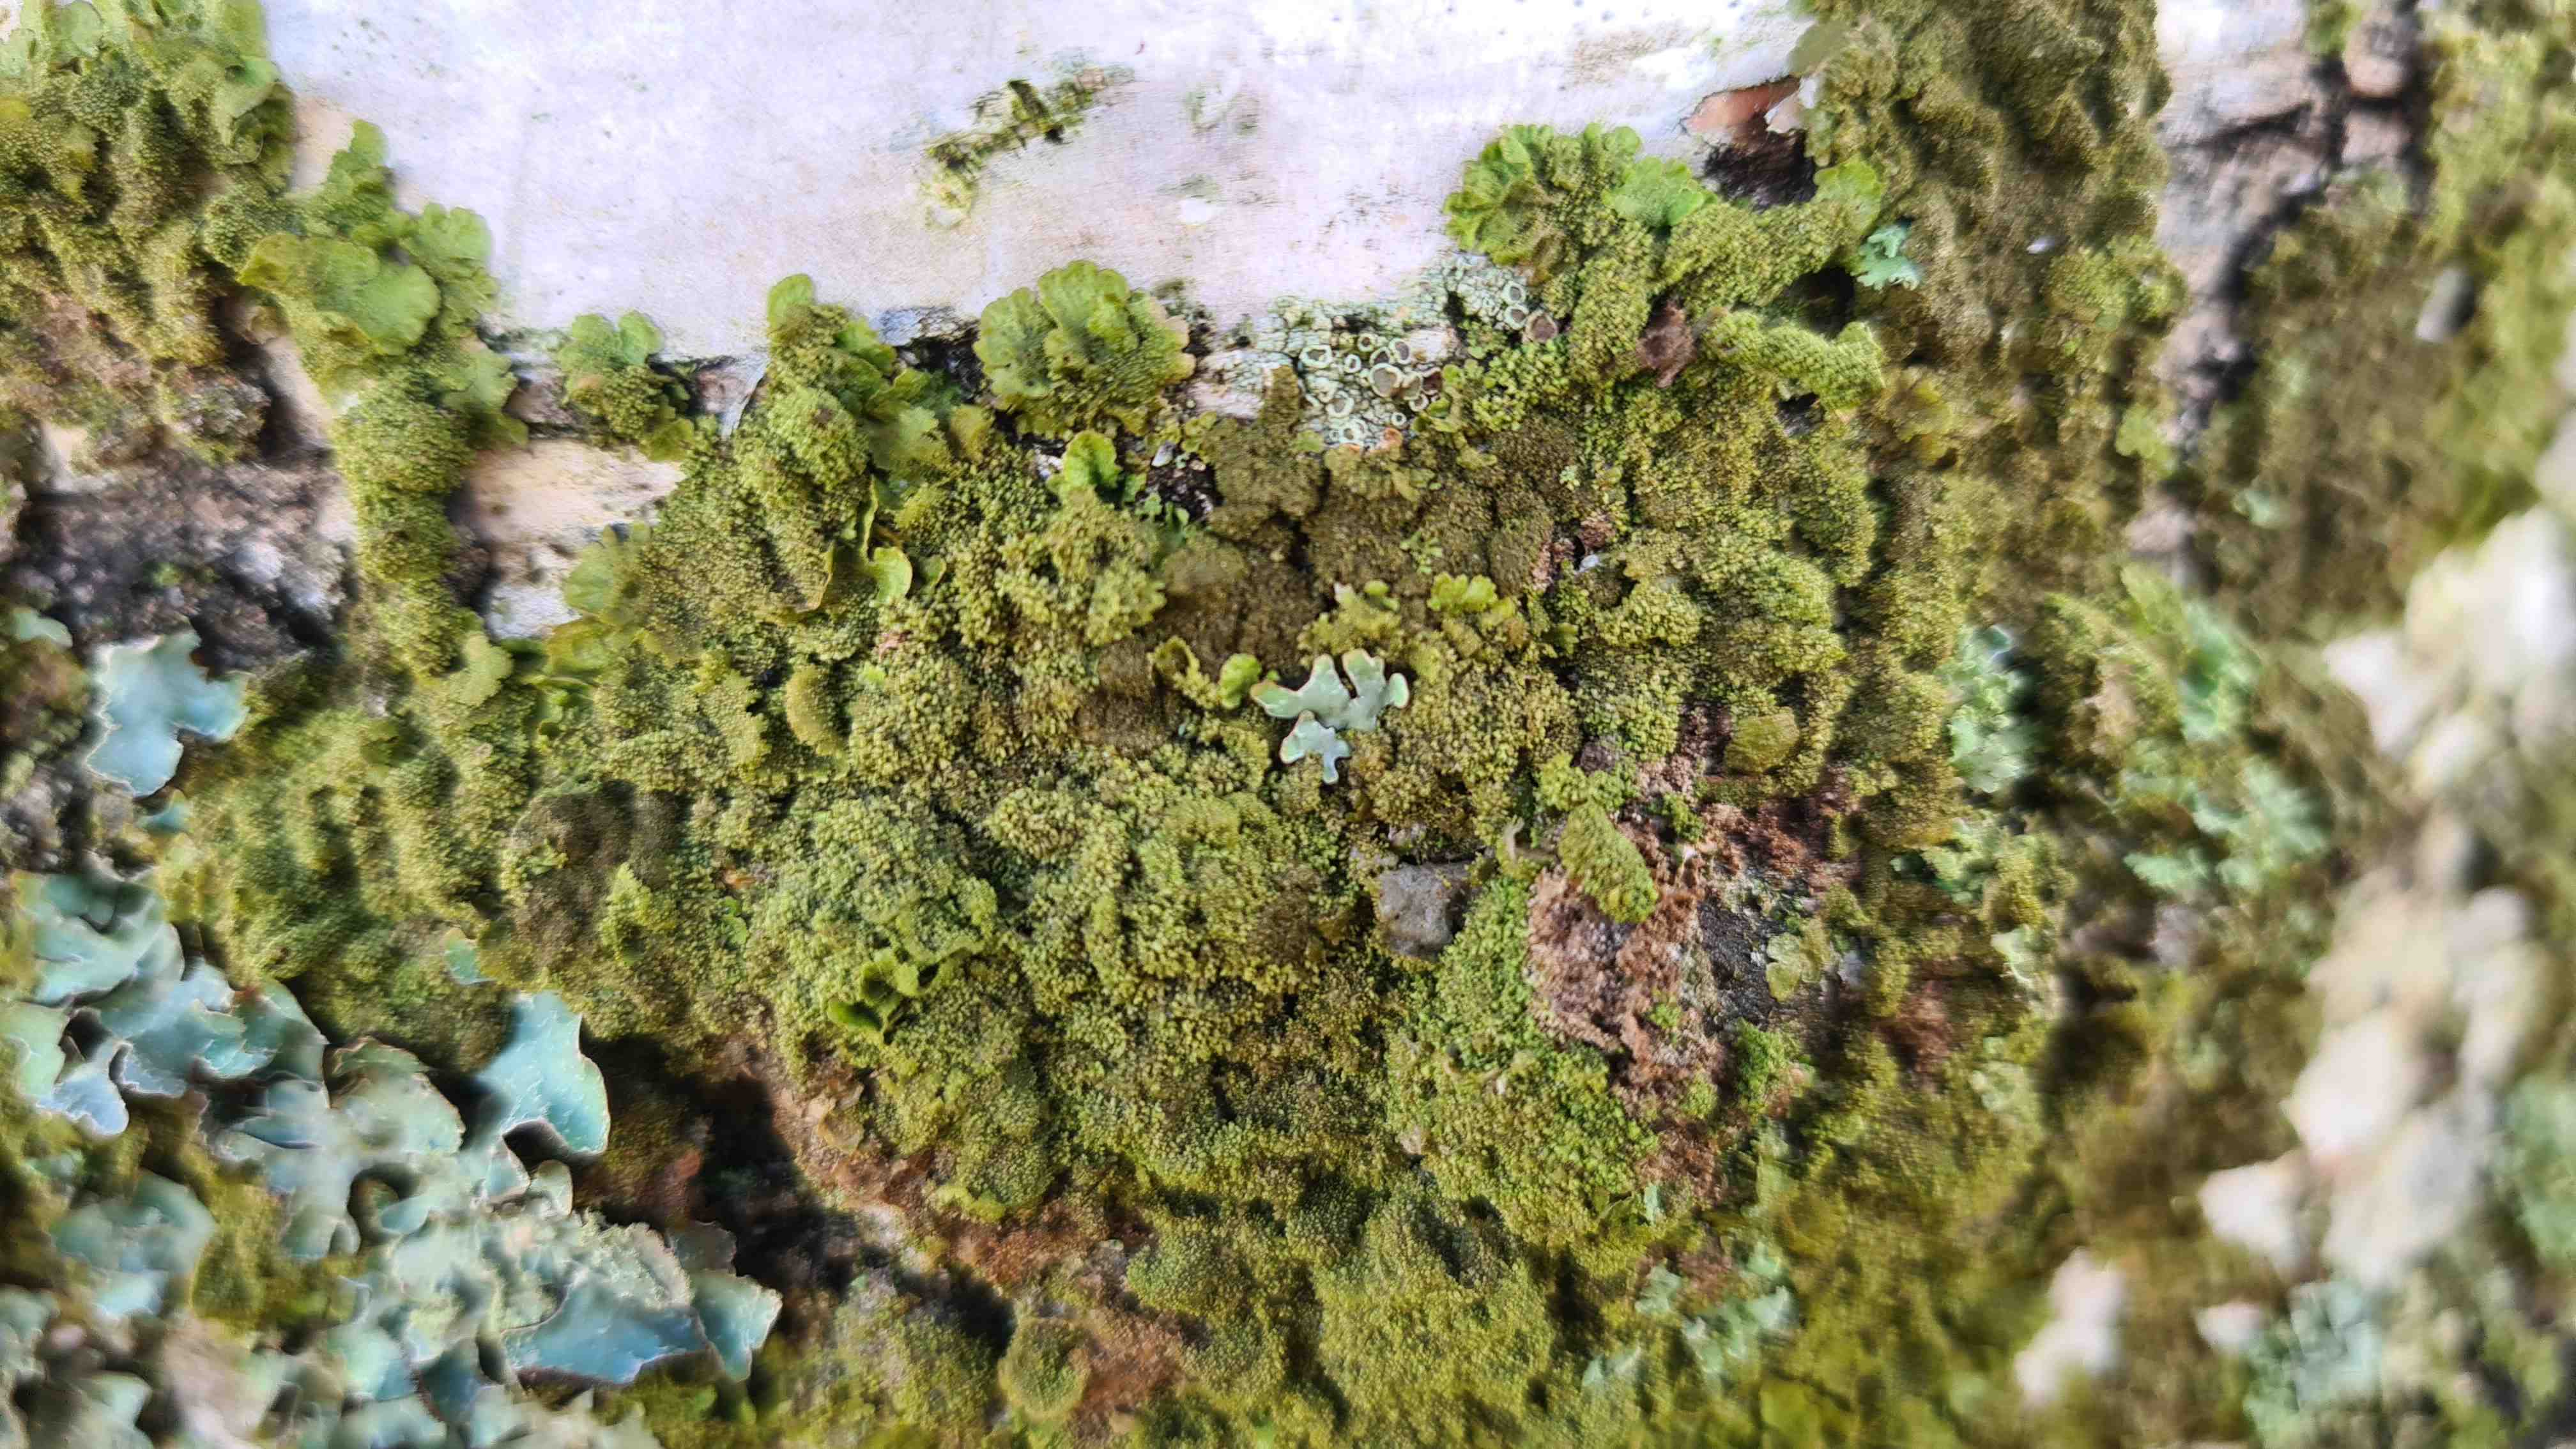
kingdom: Fungi
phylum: Ascomycota
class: Lecanoromycetes
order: Lecanorales
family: Parmeliaceae
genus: Melanohalea
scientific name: Melanohalea exasperatula
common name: kølle-skållav
